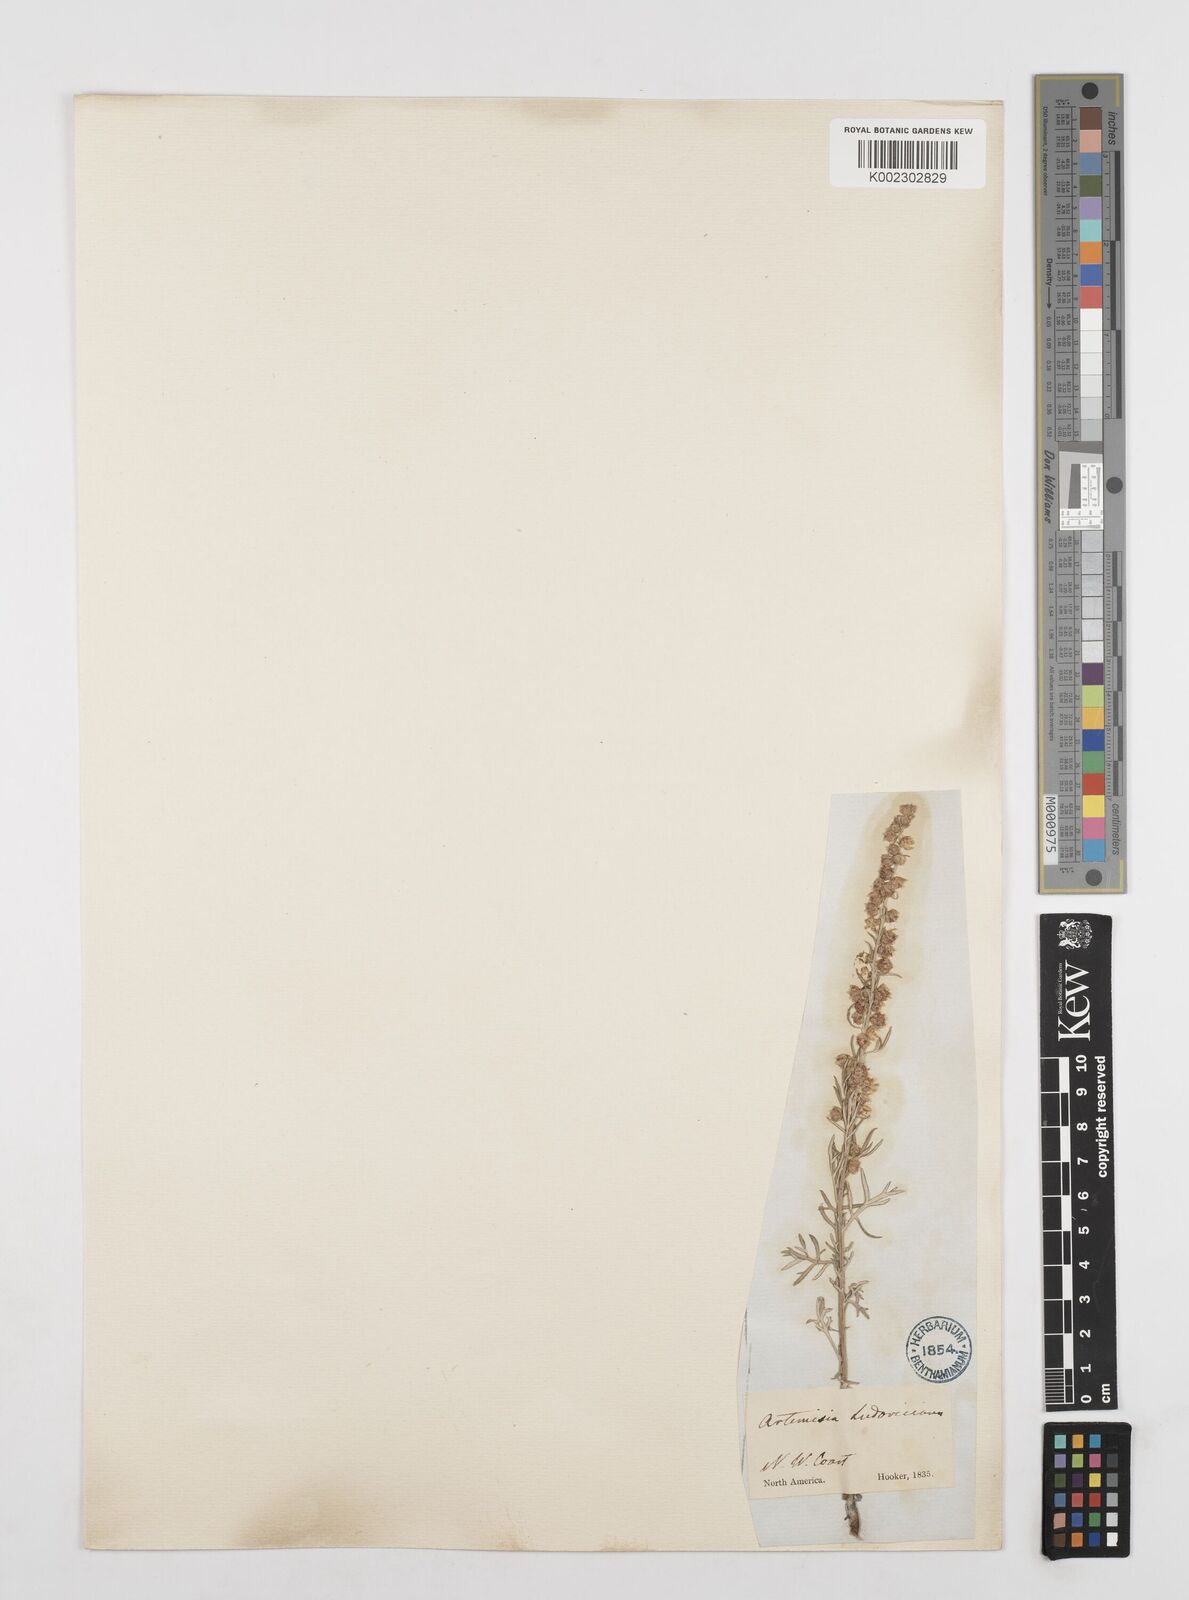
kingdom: Plantae
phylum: Tracheophyta
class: Magnoliopsida
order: Asterales
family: Asteraceae
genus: Artemisia
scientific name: Artemisia ludoviciana
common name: Western mugwort
